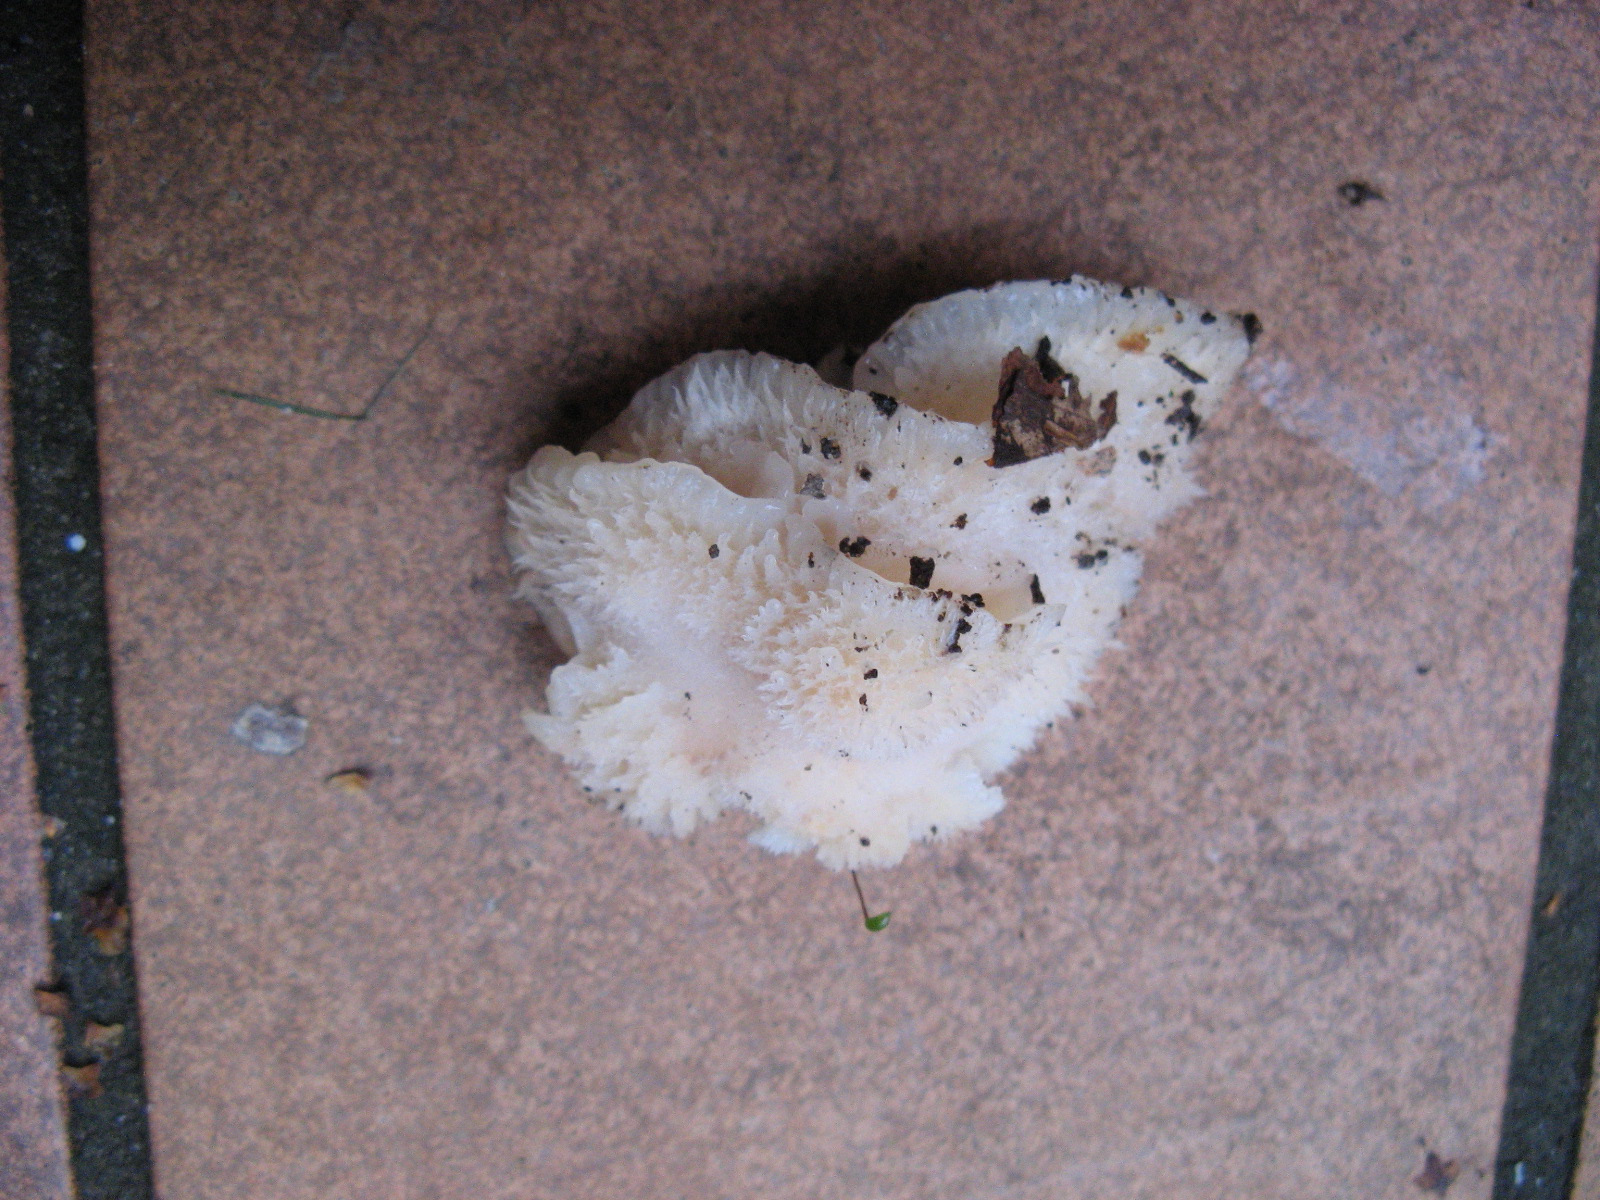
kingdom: Fungi
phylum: Basidiomycota
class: Agaricomycetes
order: Polyporales
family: Meruliaceae
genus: Phlebia
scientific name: Phlebia tremellosa
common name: bævrende åresvamp
